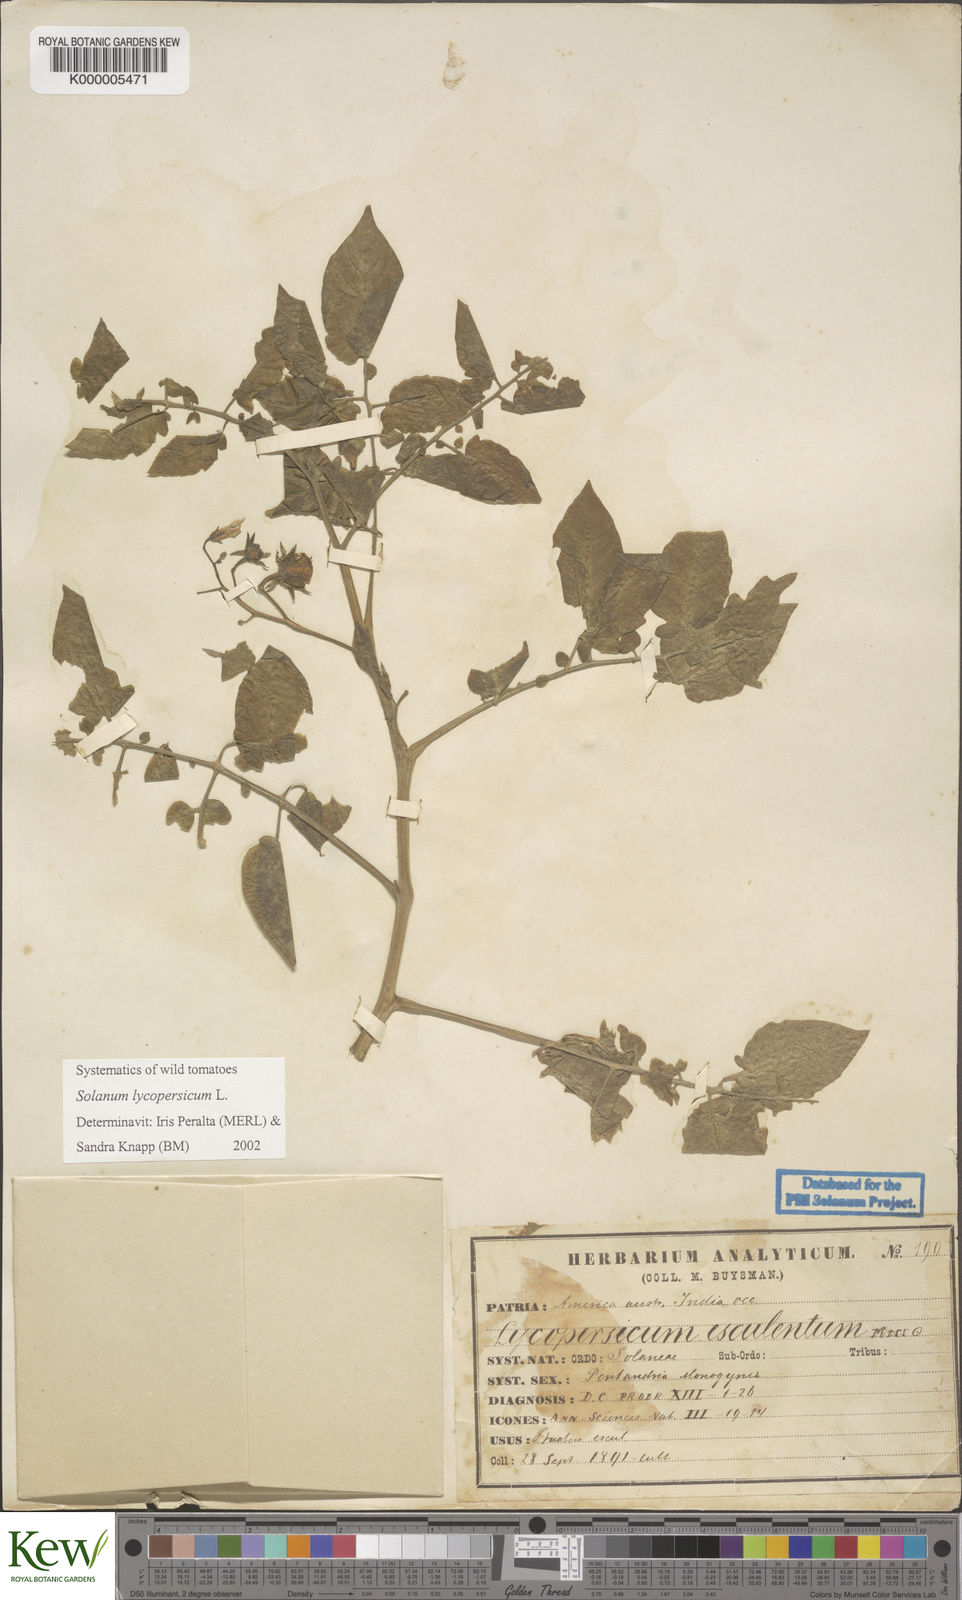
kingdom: Plantae
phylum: Tracheophyta
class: Magnoliopsida
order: Solanales
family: Solanaceae
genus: Solanum
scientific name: Solanum lycopersicum
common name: Garden tomato
